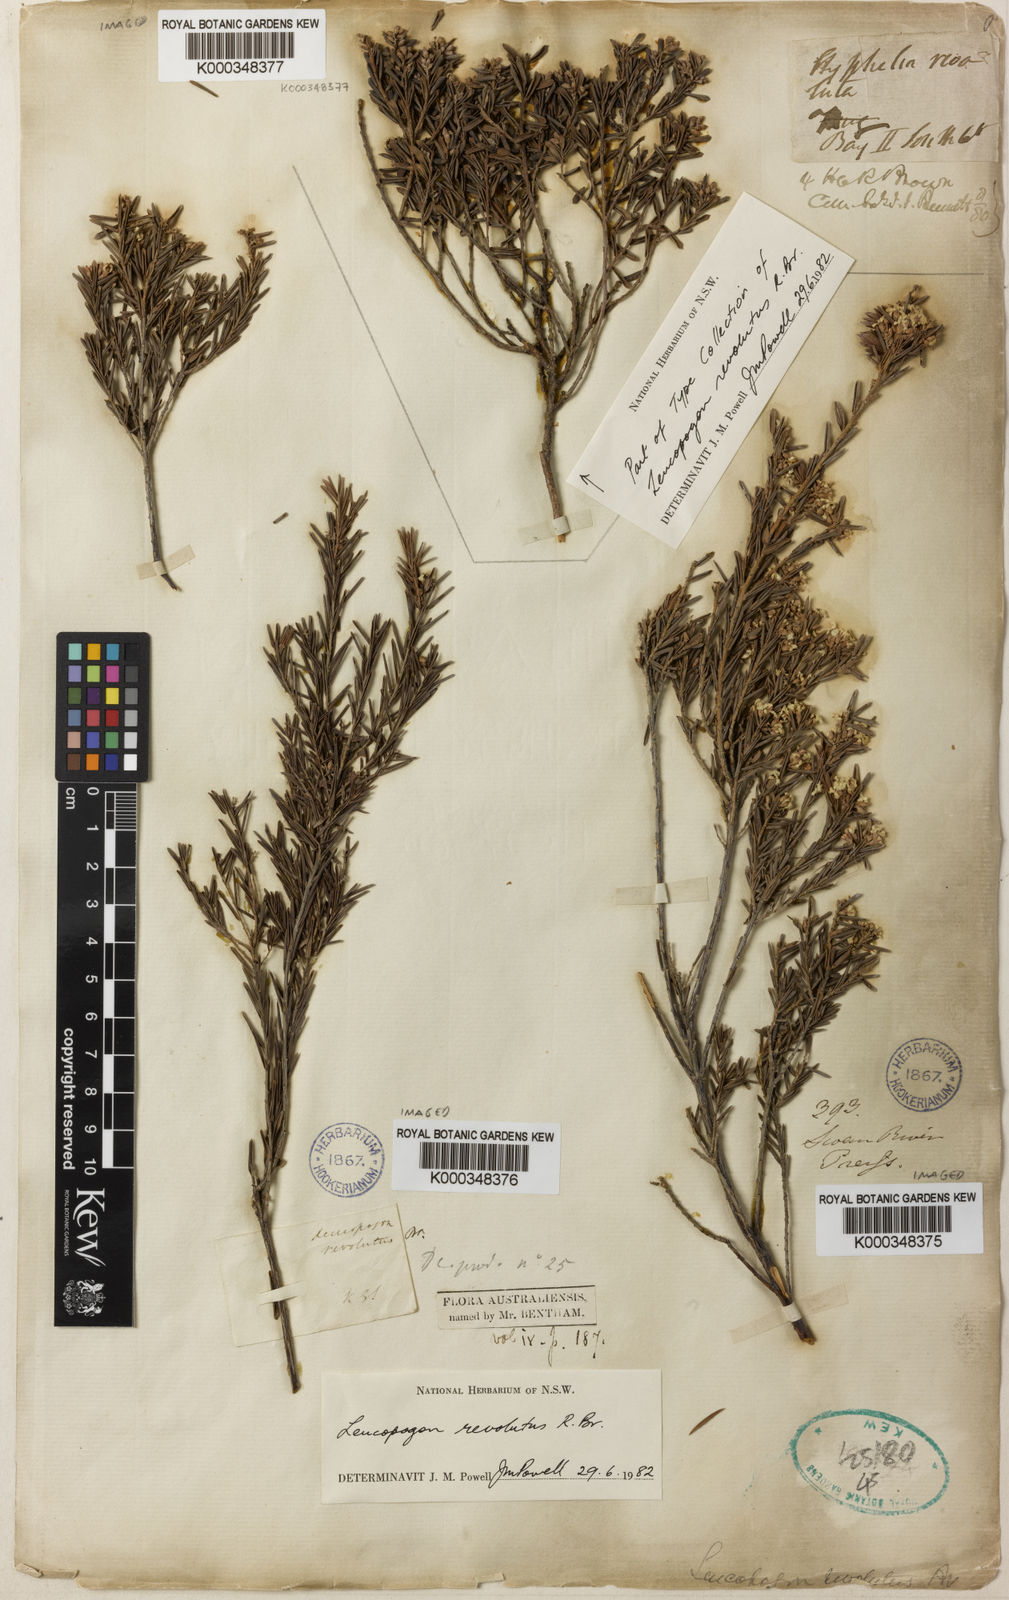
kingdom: Plantae
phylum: Tracheophyta
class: Magnoliopsida
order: Ericales
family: Ericaceae
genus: Leucopogon
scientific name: Leucopogon obovatus
